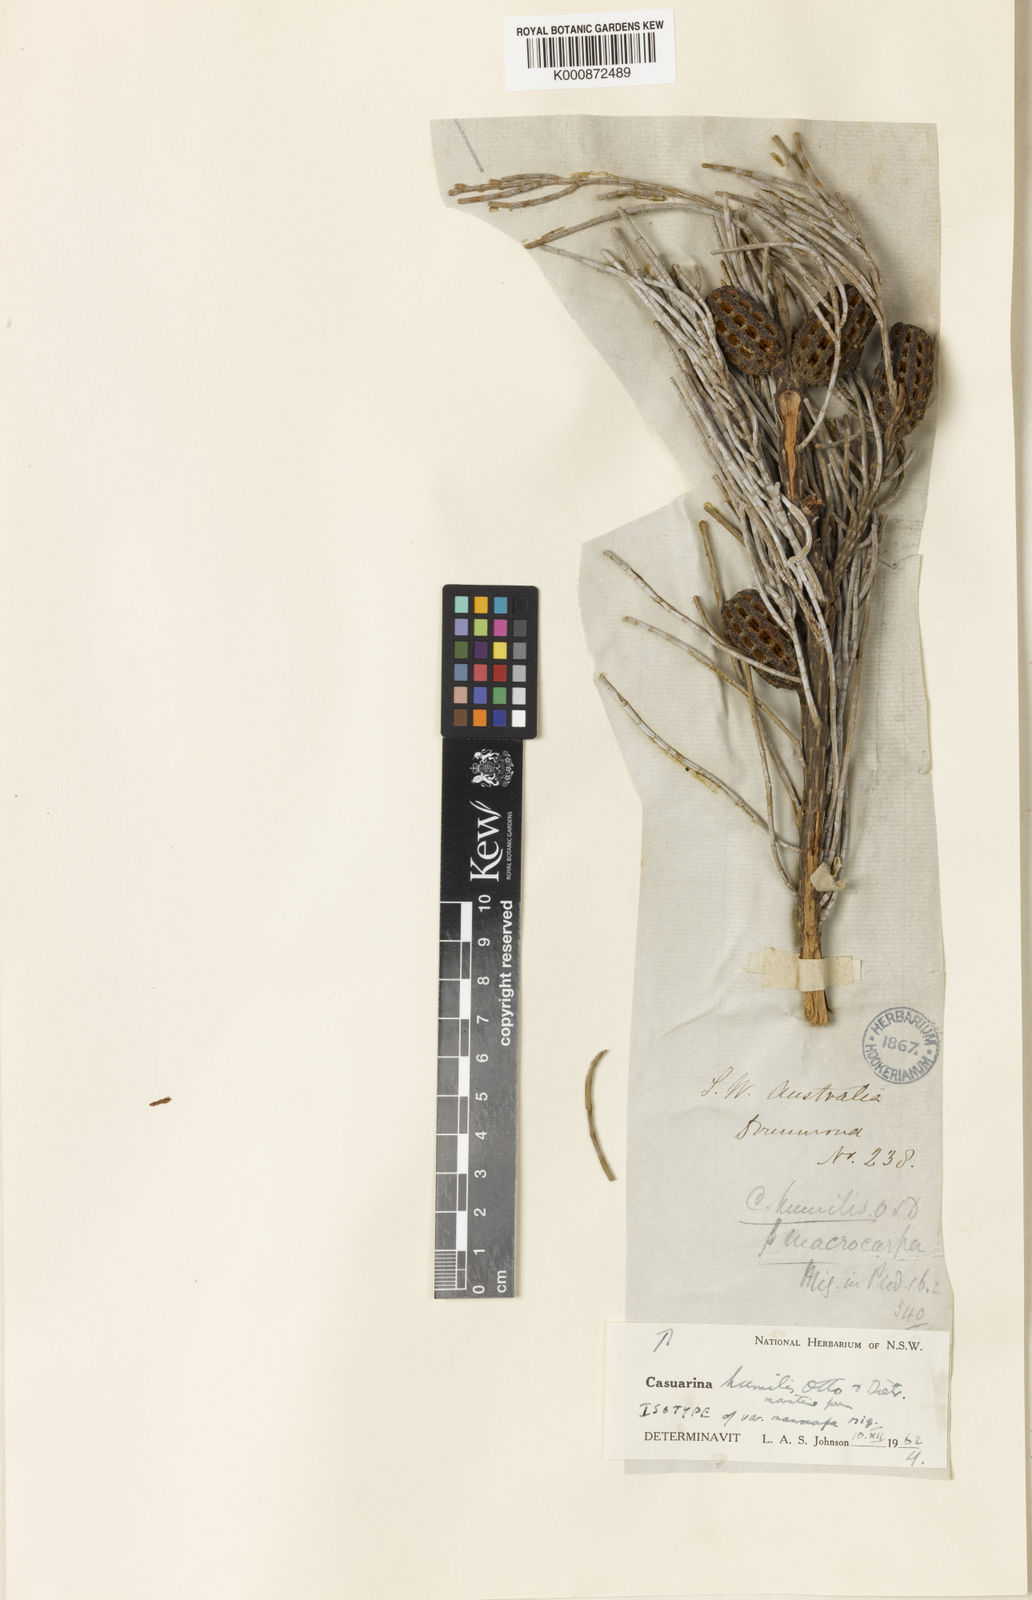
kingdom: Plantae
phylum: Tracheophyta
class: Magnoliopsida
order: Fagales
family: Casuarinaceae
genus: Allocasuarina
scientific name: Allocasuarina humilis
